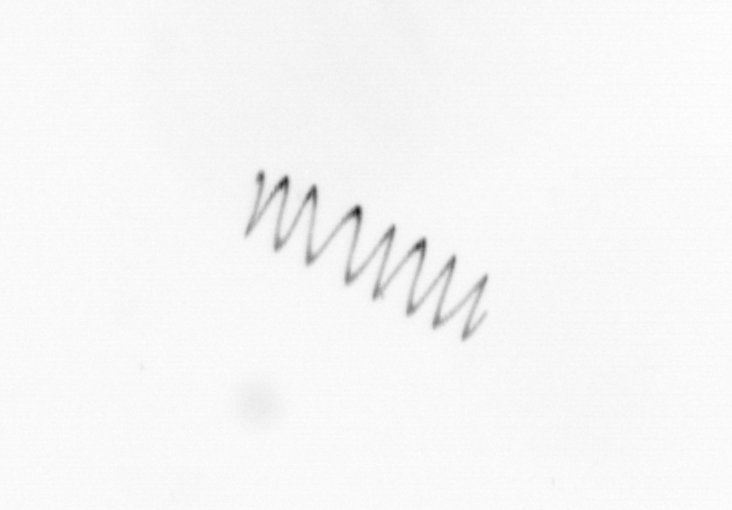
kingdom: Chromista
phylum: Ochrophyta
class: Bacillariophyceae
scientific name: Bacillariophyceae
